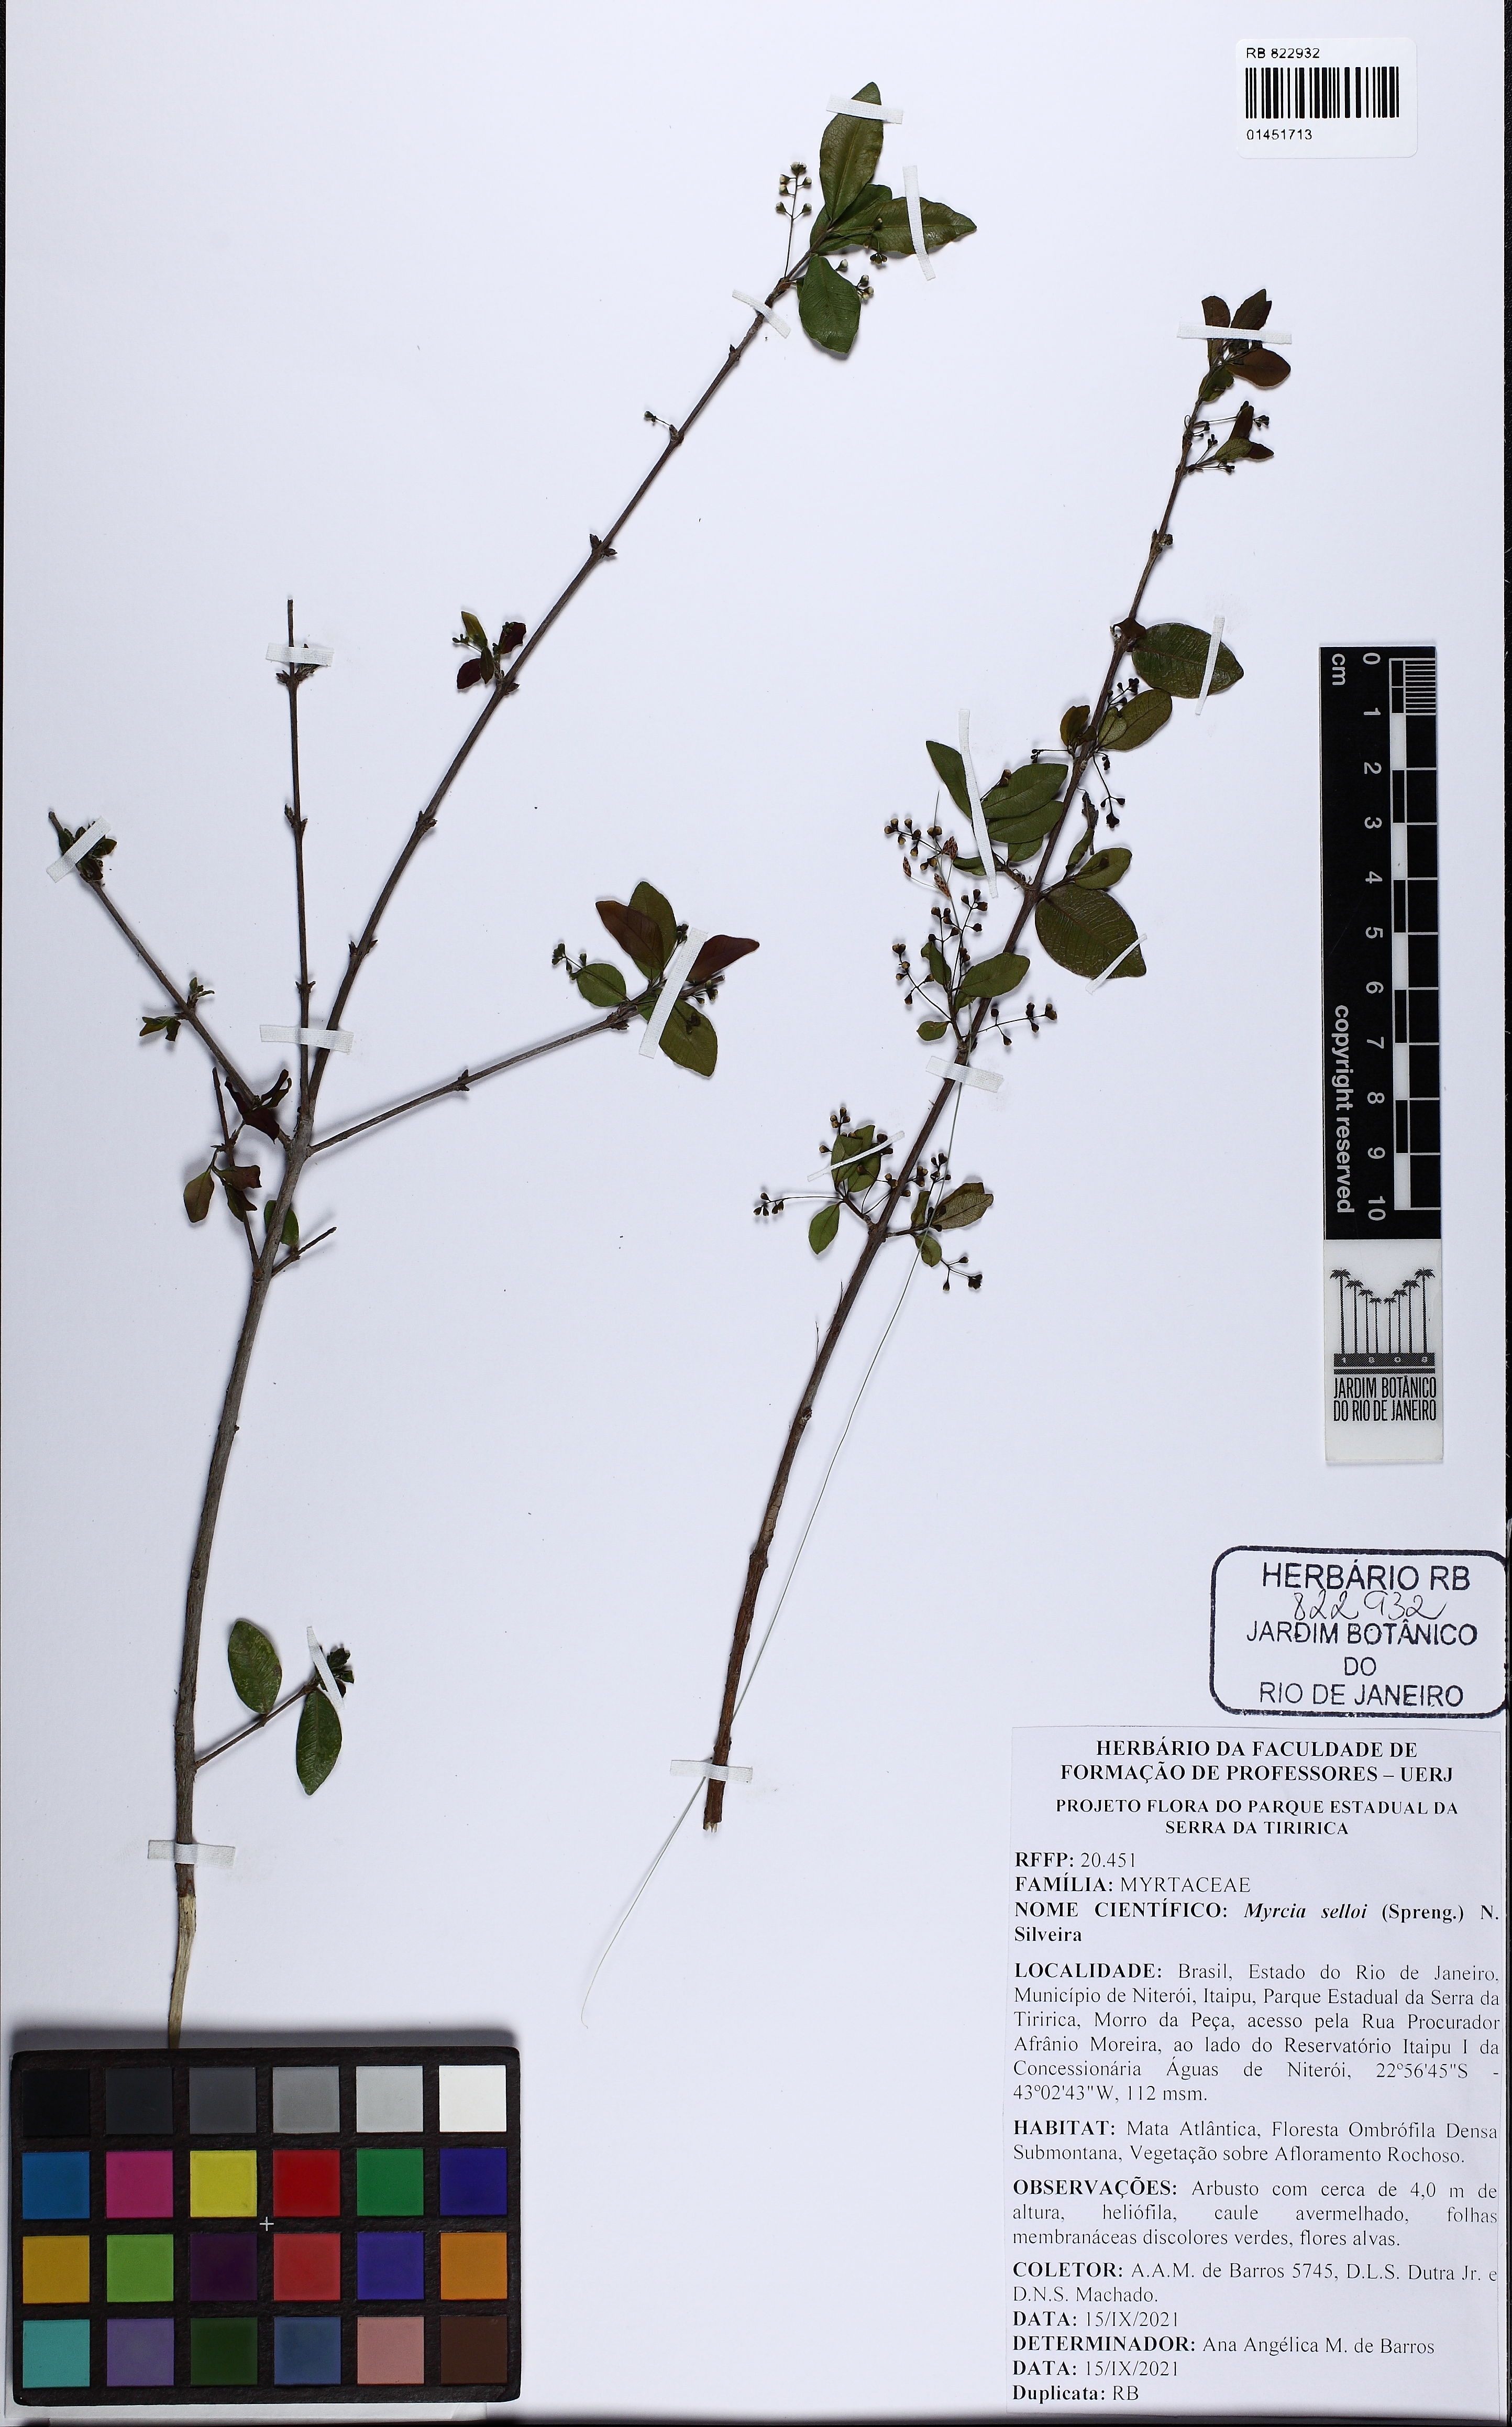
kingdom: Plantae
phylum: Tracheophyta
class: Magnoliopsida
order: Myrtales
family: Myrtaceae
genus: Myrcia
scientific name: Myrcia selloi
